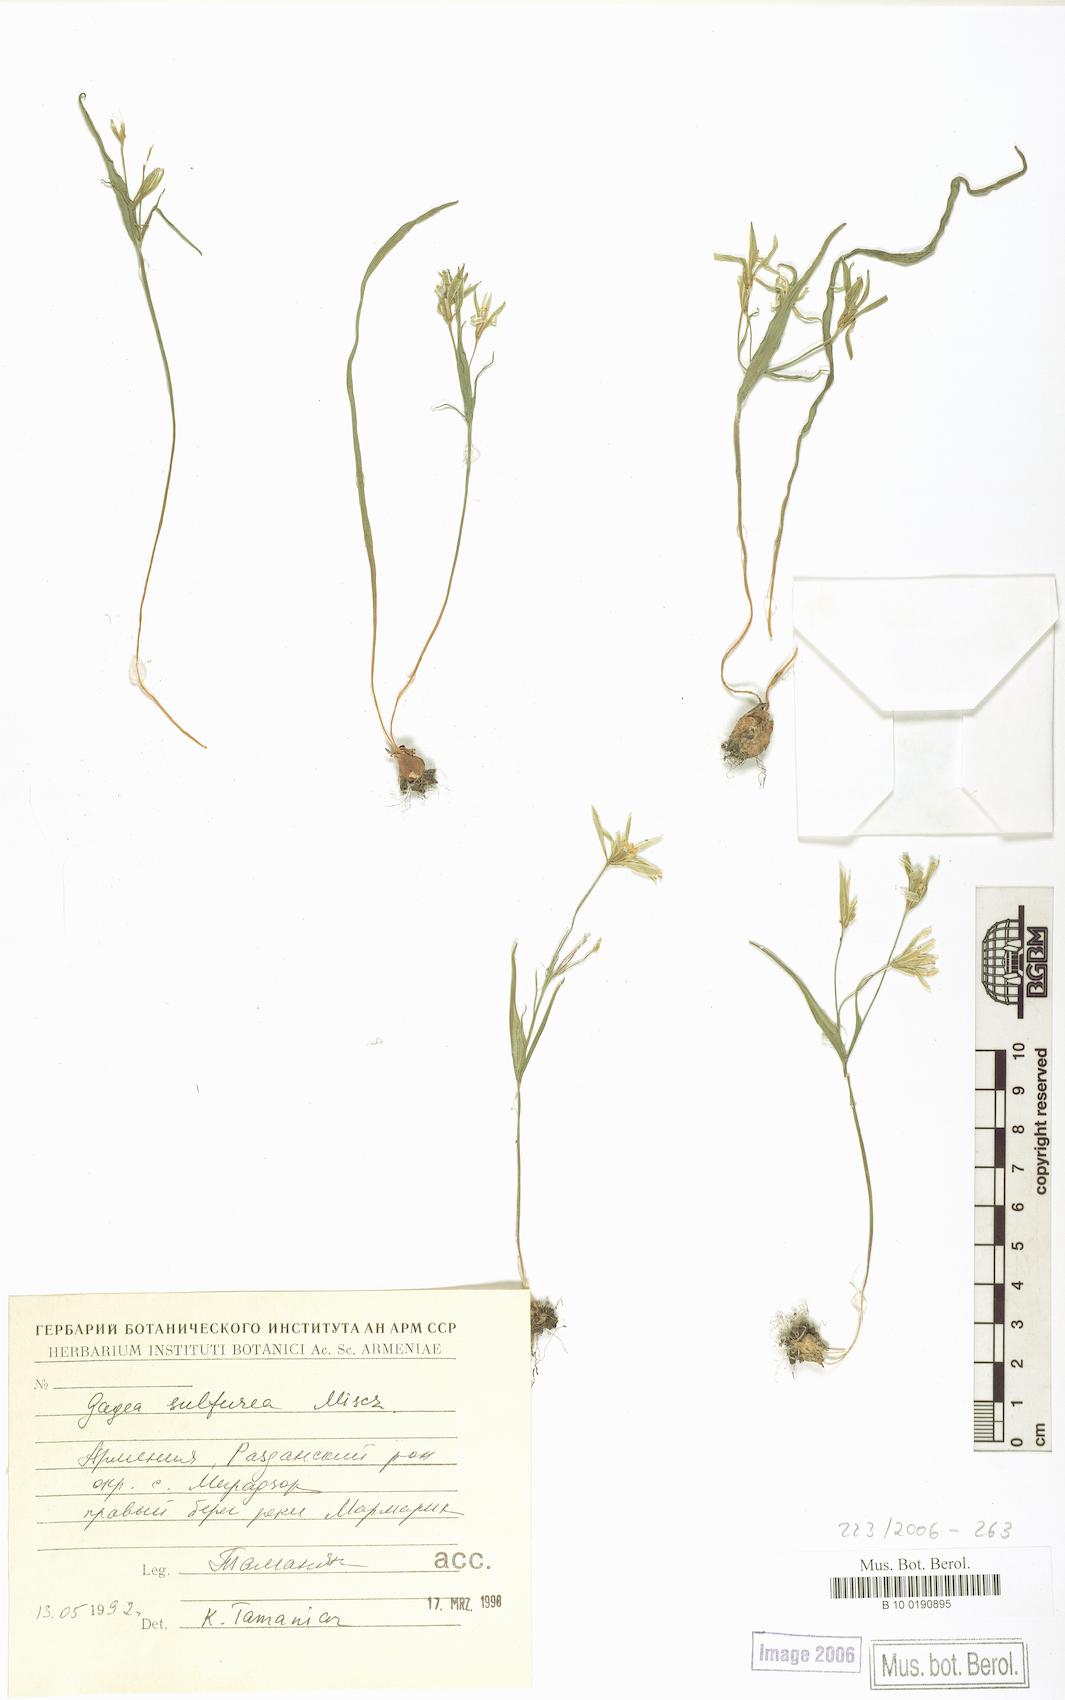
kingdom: Plantae
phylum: Tracheophyta
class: Liliopsida
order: Liliales
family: Liliaceae
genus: Gagea
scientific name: Gagea sulfurea
